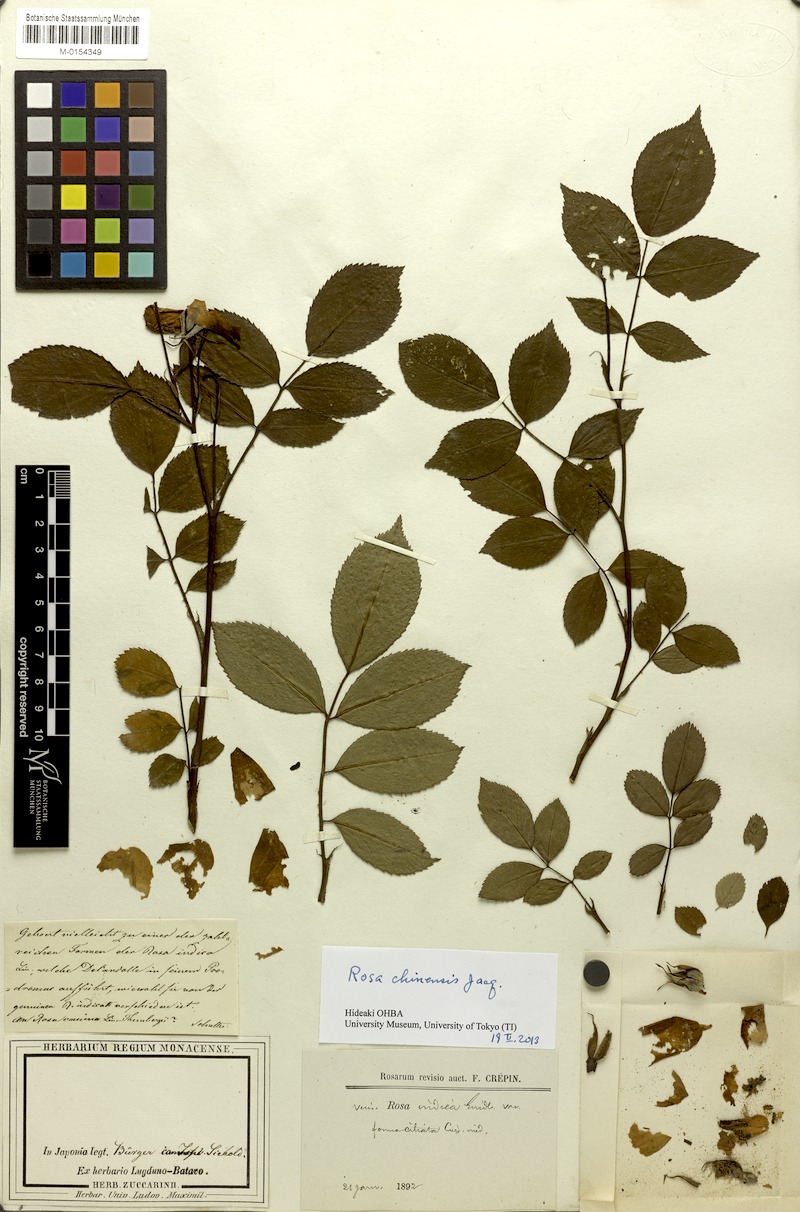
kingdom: Plantae
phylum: Tracheophyta
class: Magnoliopsida
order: Rosales
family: Rosaceae
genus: Rosa
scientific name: Rosa chinensis
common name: China rose
